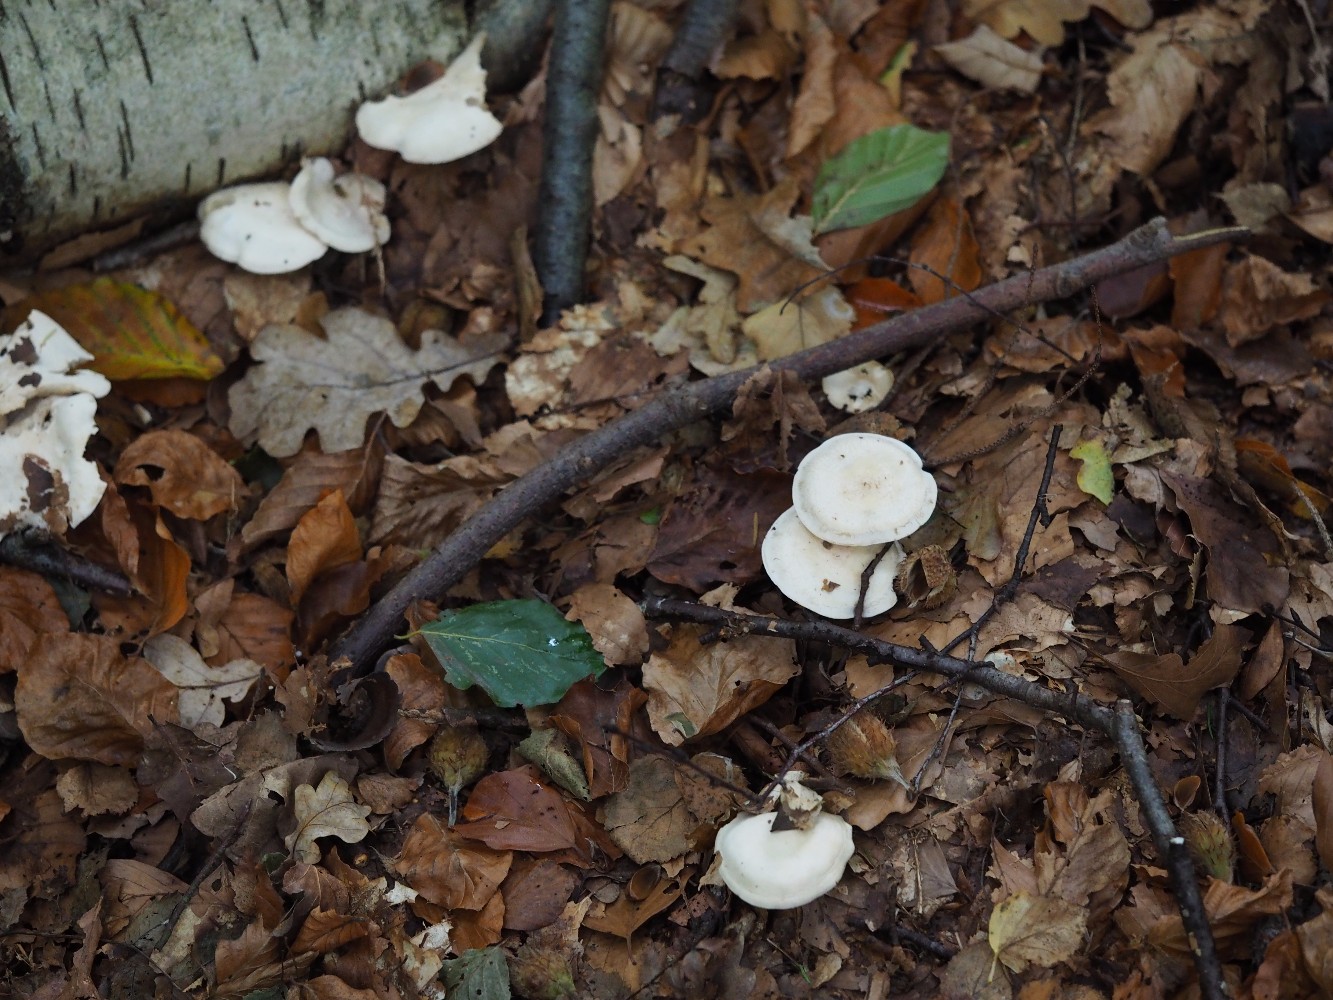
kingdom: Fungi
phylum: Basidiomycota
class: Agaricomycetes
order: Agaricales
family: Tricholomataceae
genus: Clitocybe
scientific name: Clitocybe phyllophila
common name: løv-tragthat
